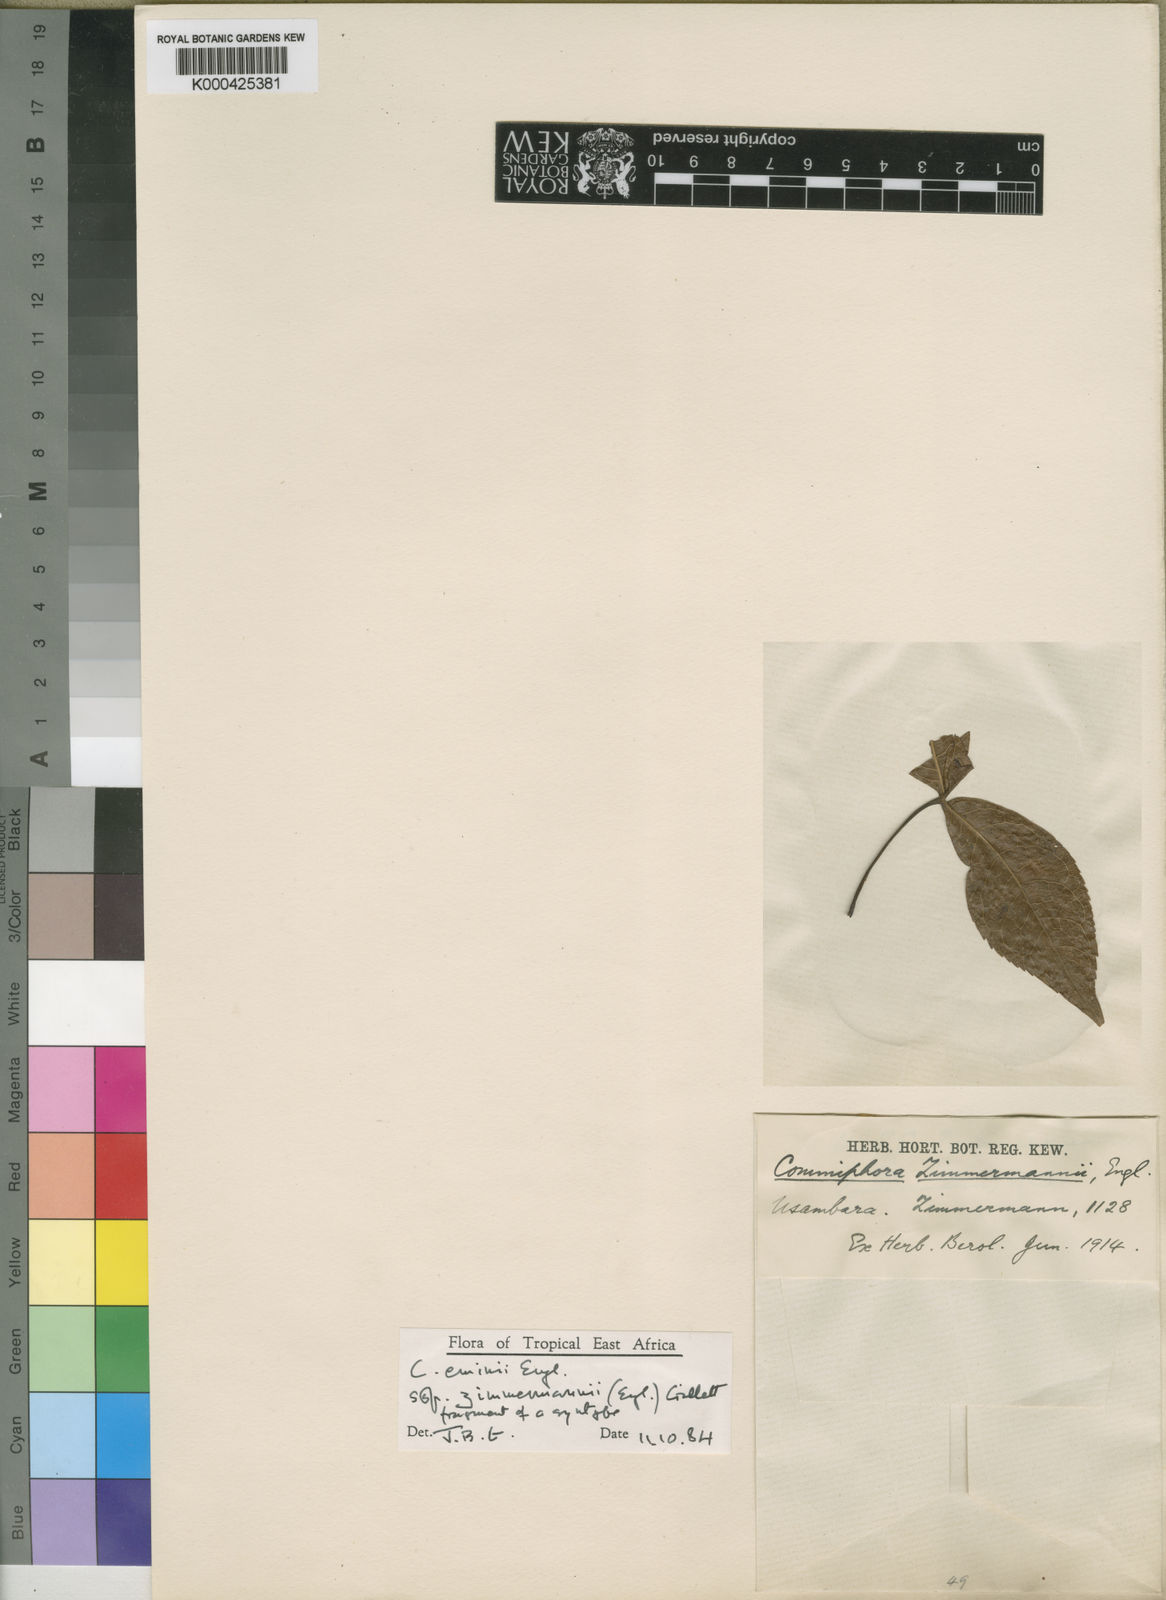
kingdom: Plantae
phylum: Tracheophyta
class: Magnoliopsida
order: Sapindales
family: Burseraceae
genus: Commiphora
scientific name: Commiphora eminii
